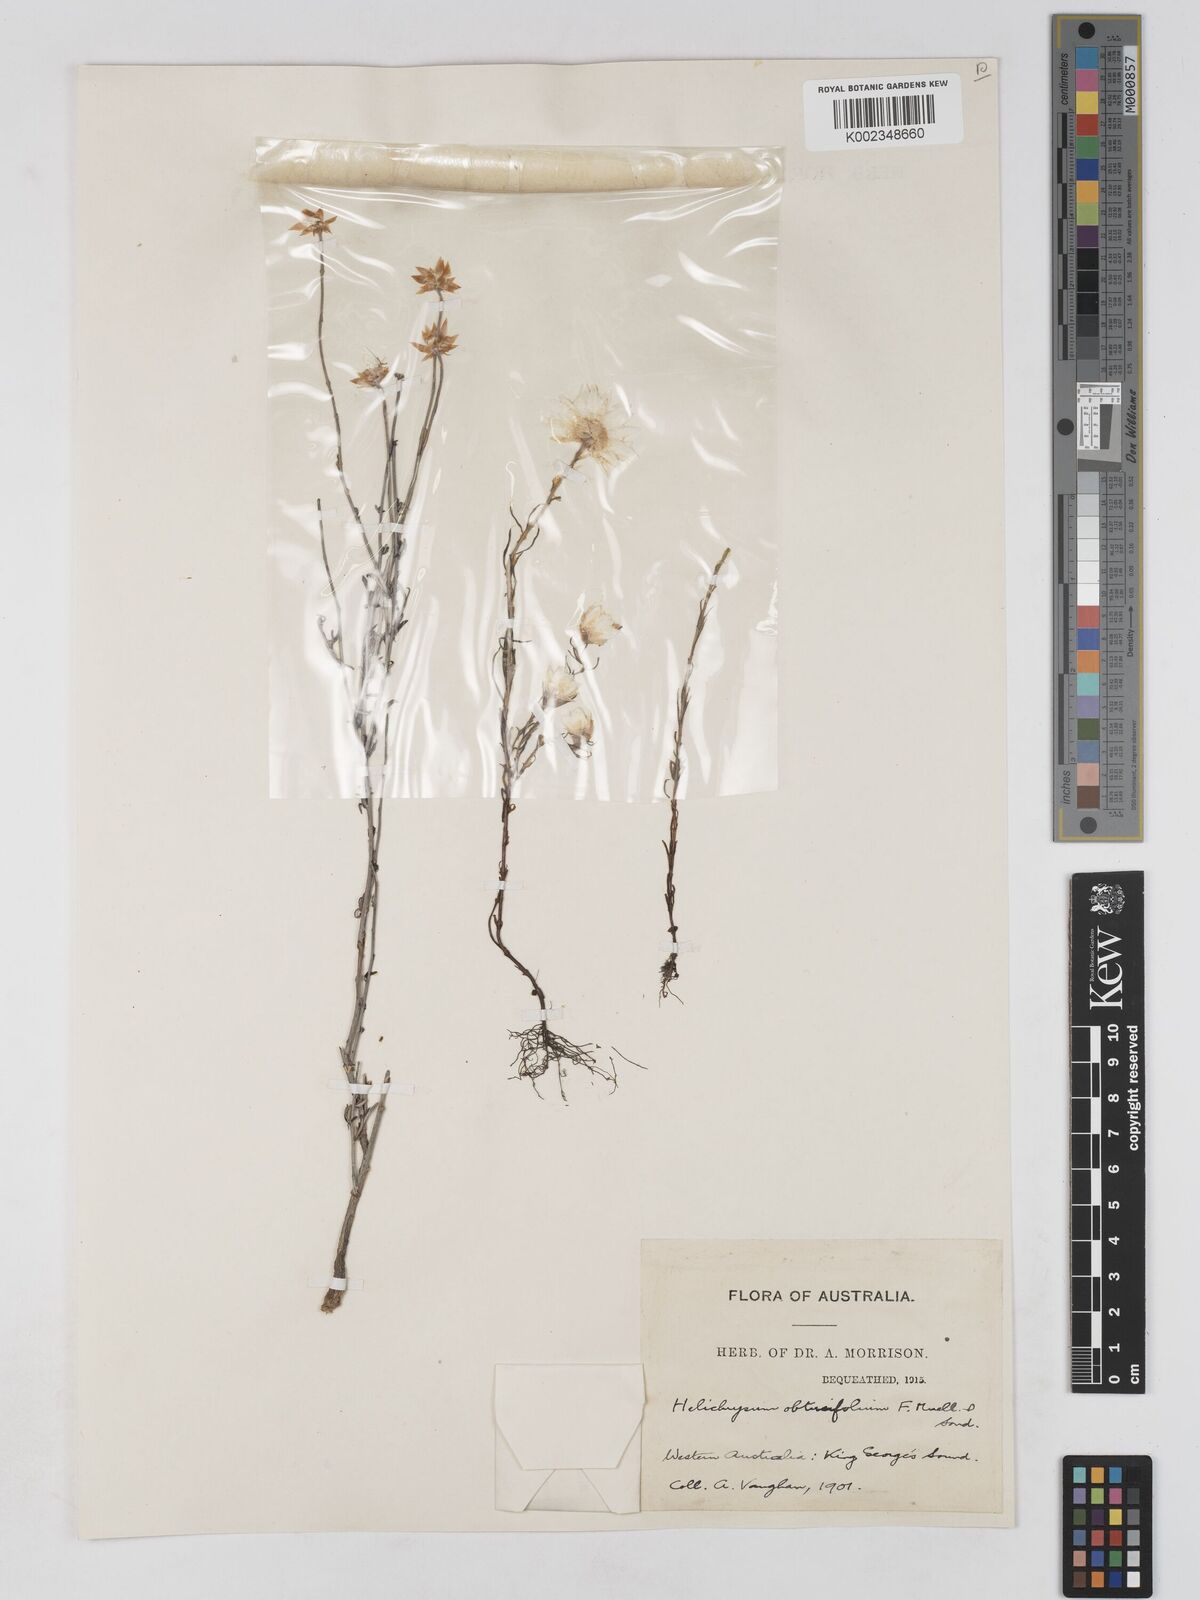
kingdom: Plantae
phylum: Tracheophyta
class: Magnoliopsida
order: Asterales
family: Asteraceae
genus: Argentipallium
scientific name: Argentipallium obtusifolium
